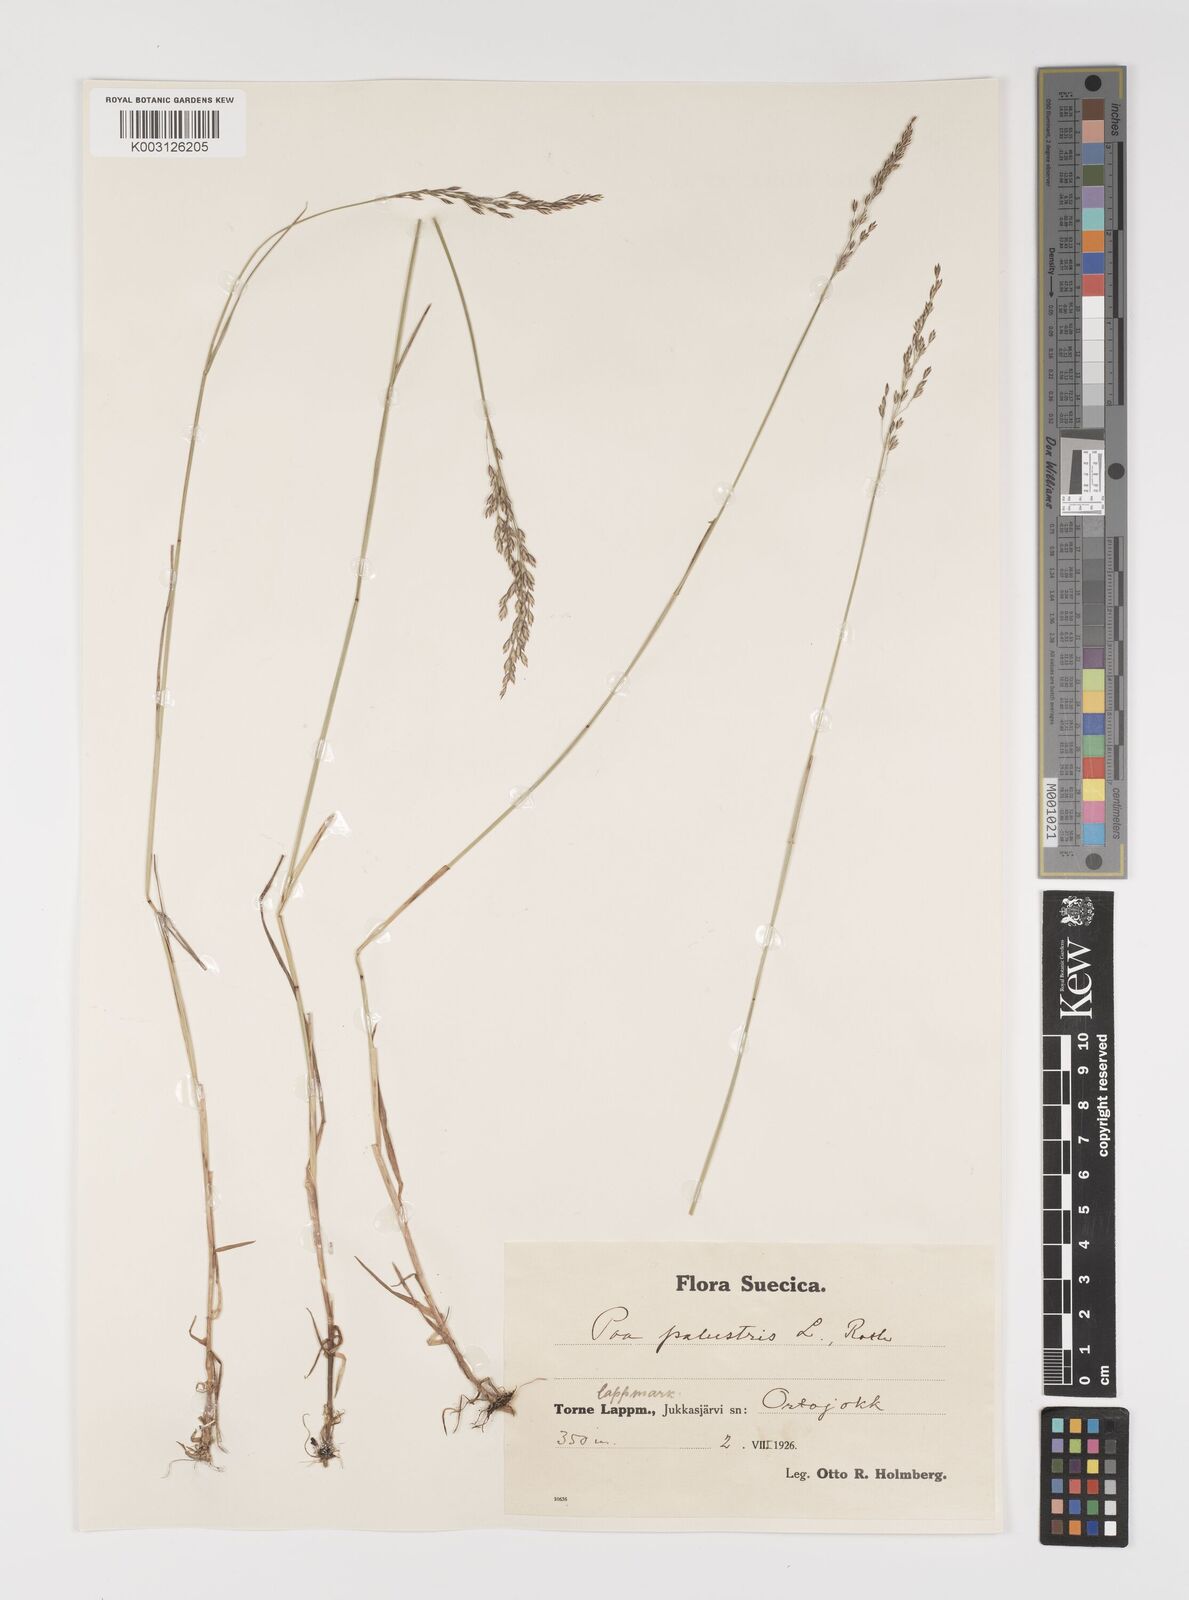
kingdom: Plantae
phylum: Tracheophyta
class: Liliopsida
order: Poales
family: Poaceae
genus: Poa
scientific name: Poa palustris
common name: Swamp meadow-grass
